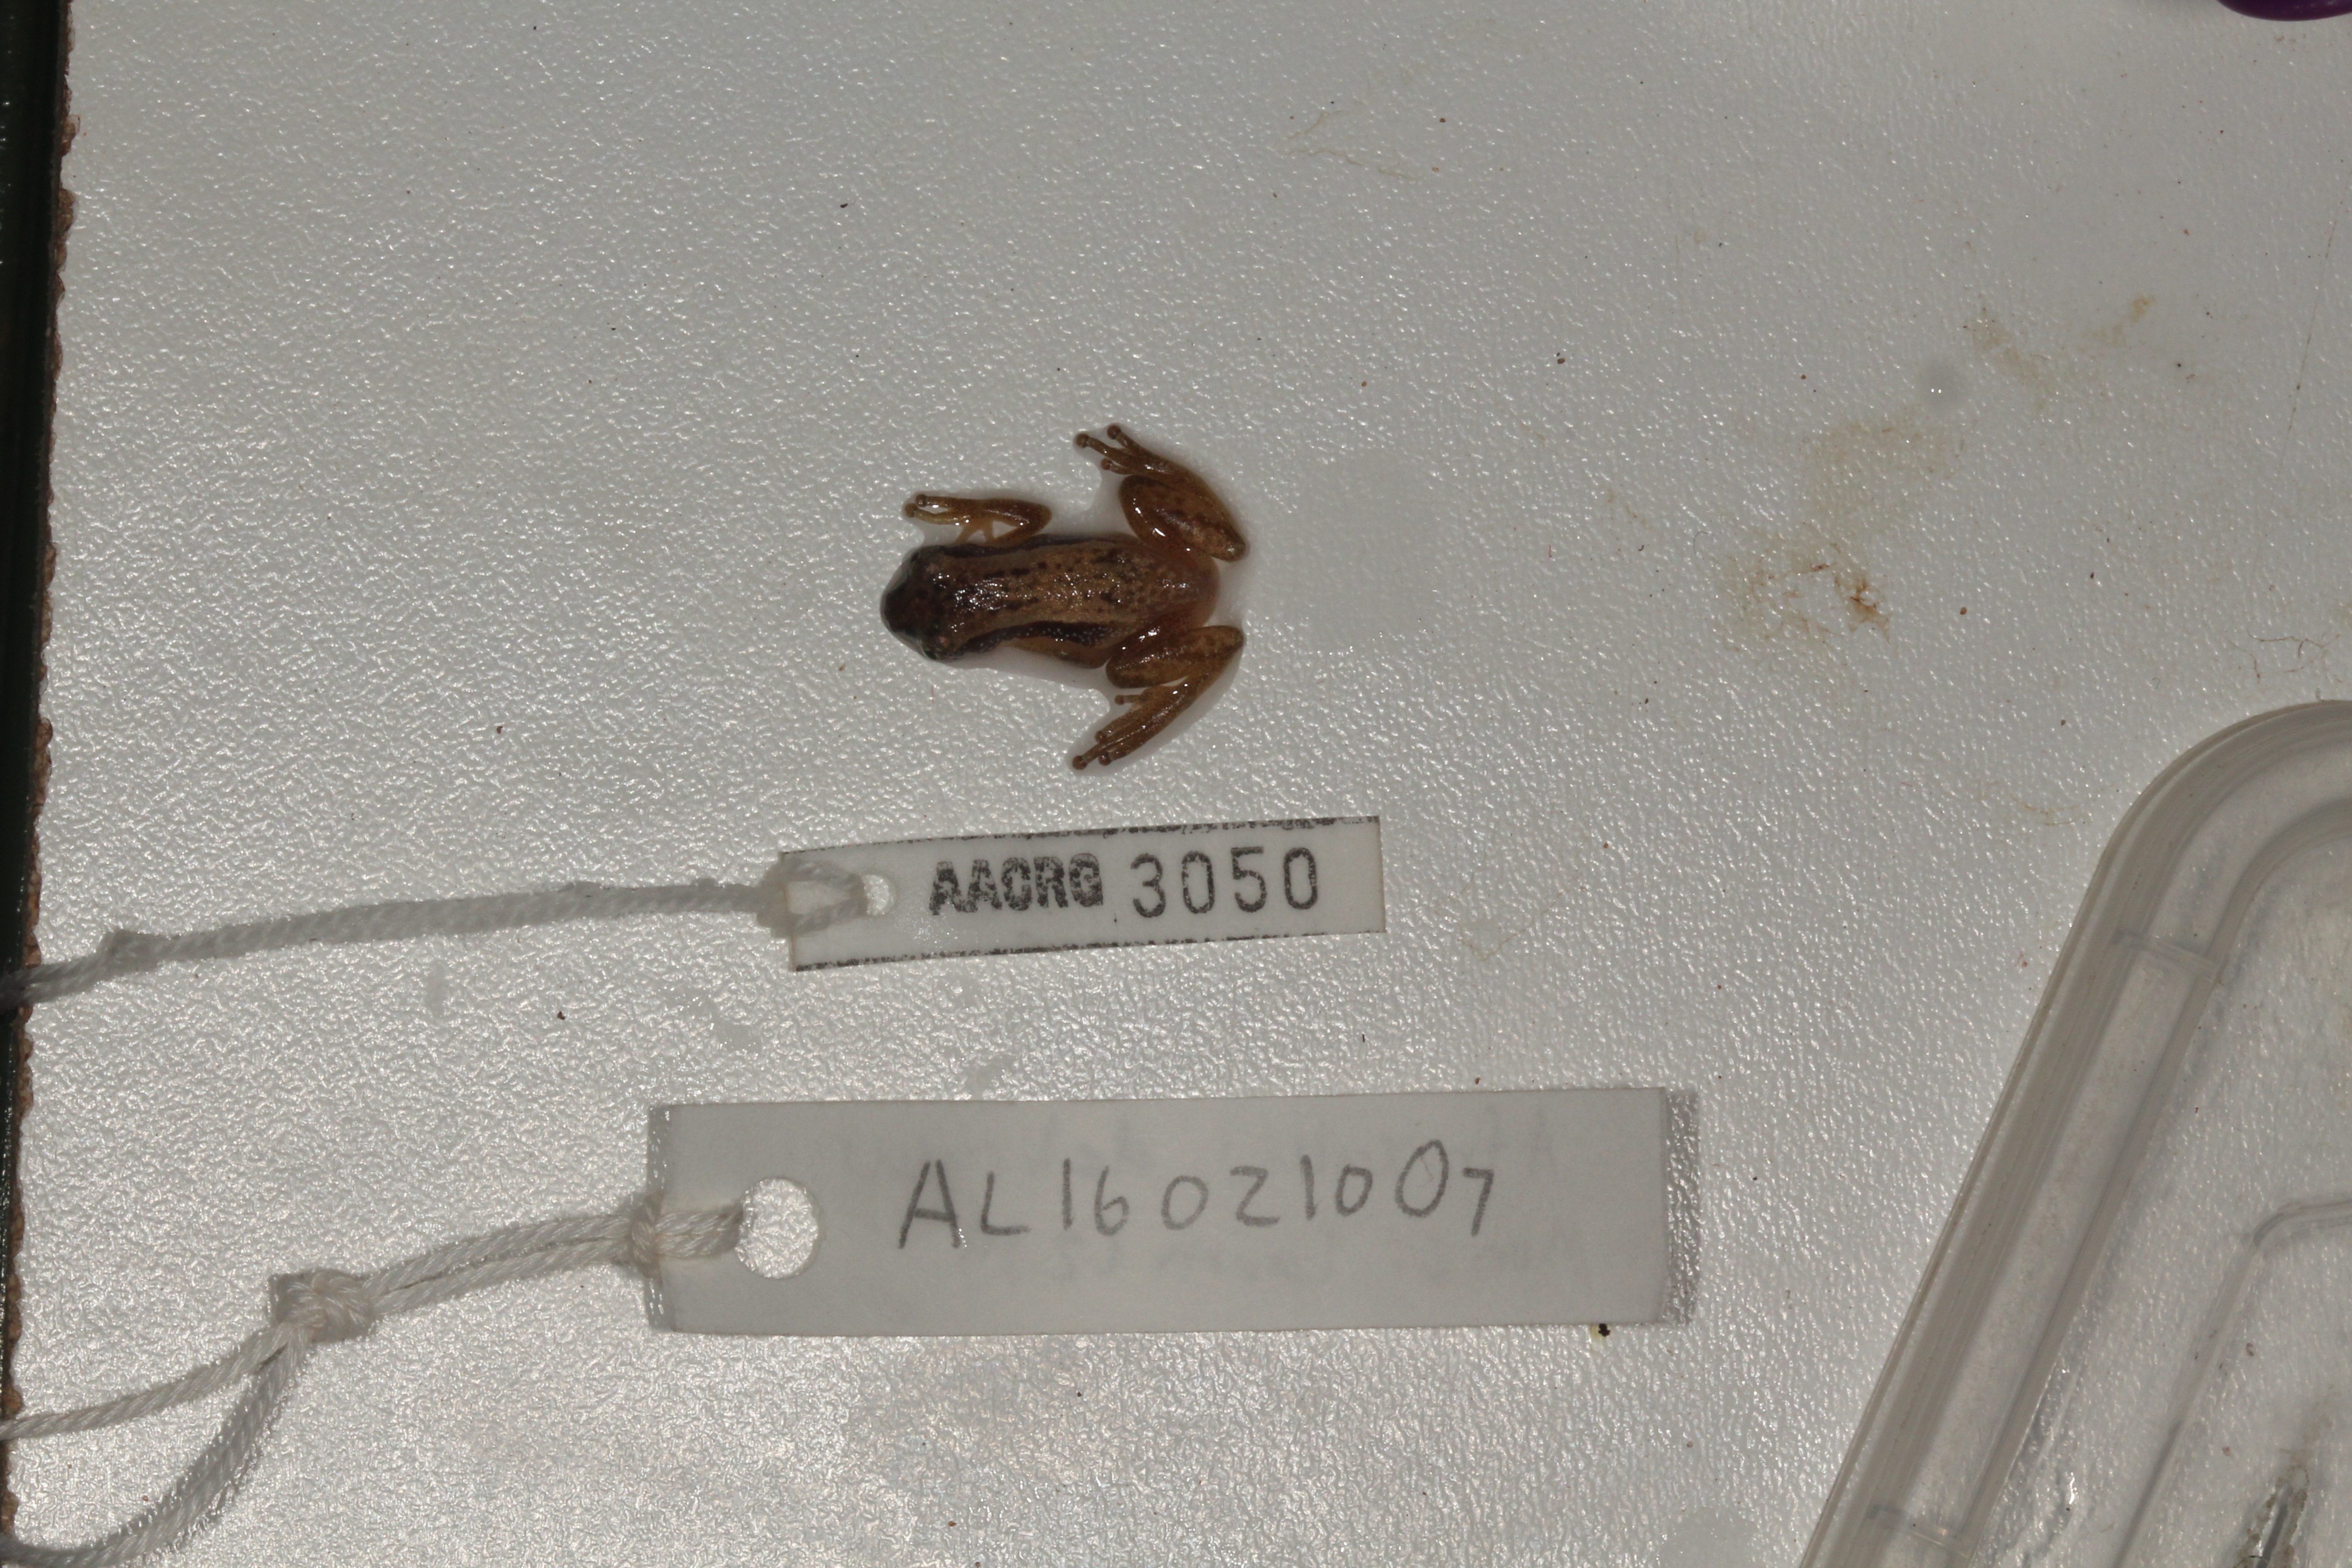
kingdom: Animalia
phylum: Chordata
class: Amphibia
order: Anura
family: Hyperoliidae
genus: Afrixalus
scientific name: Afrixalus delicatus
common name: Delicate leaf-folding frog
